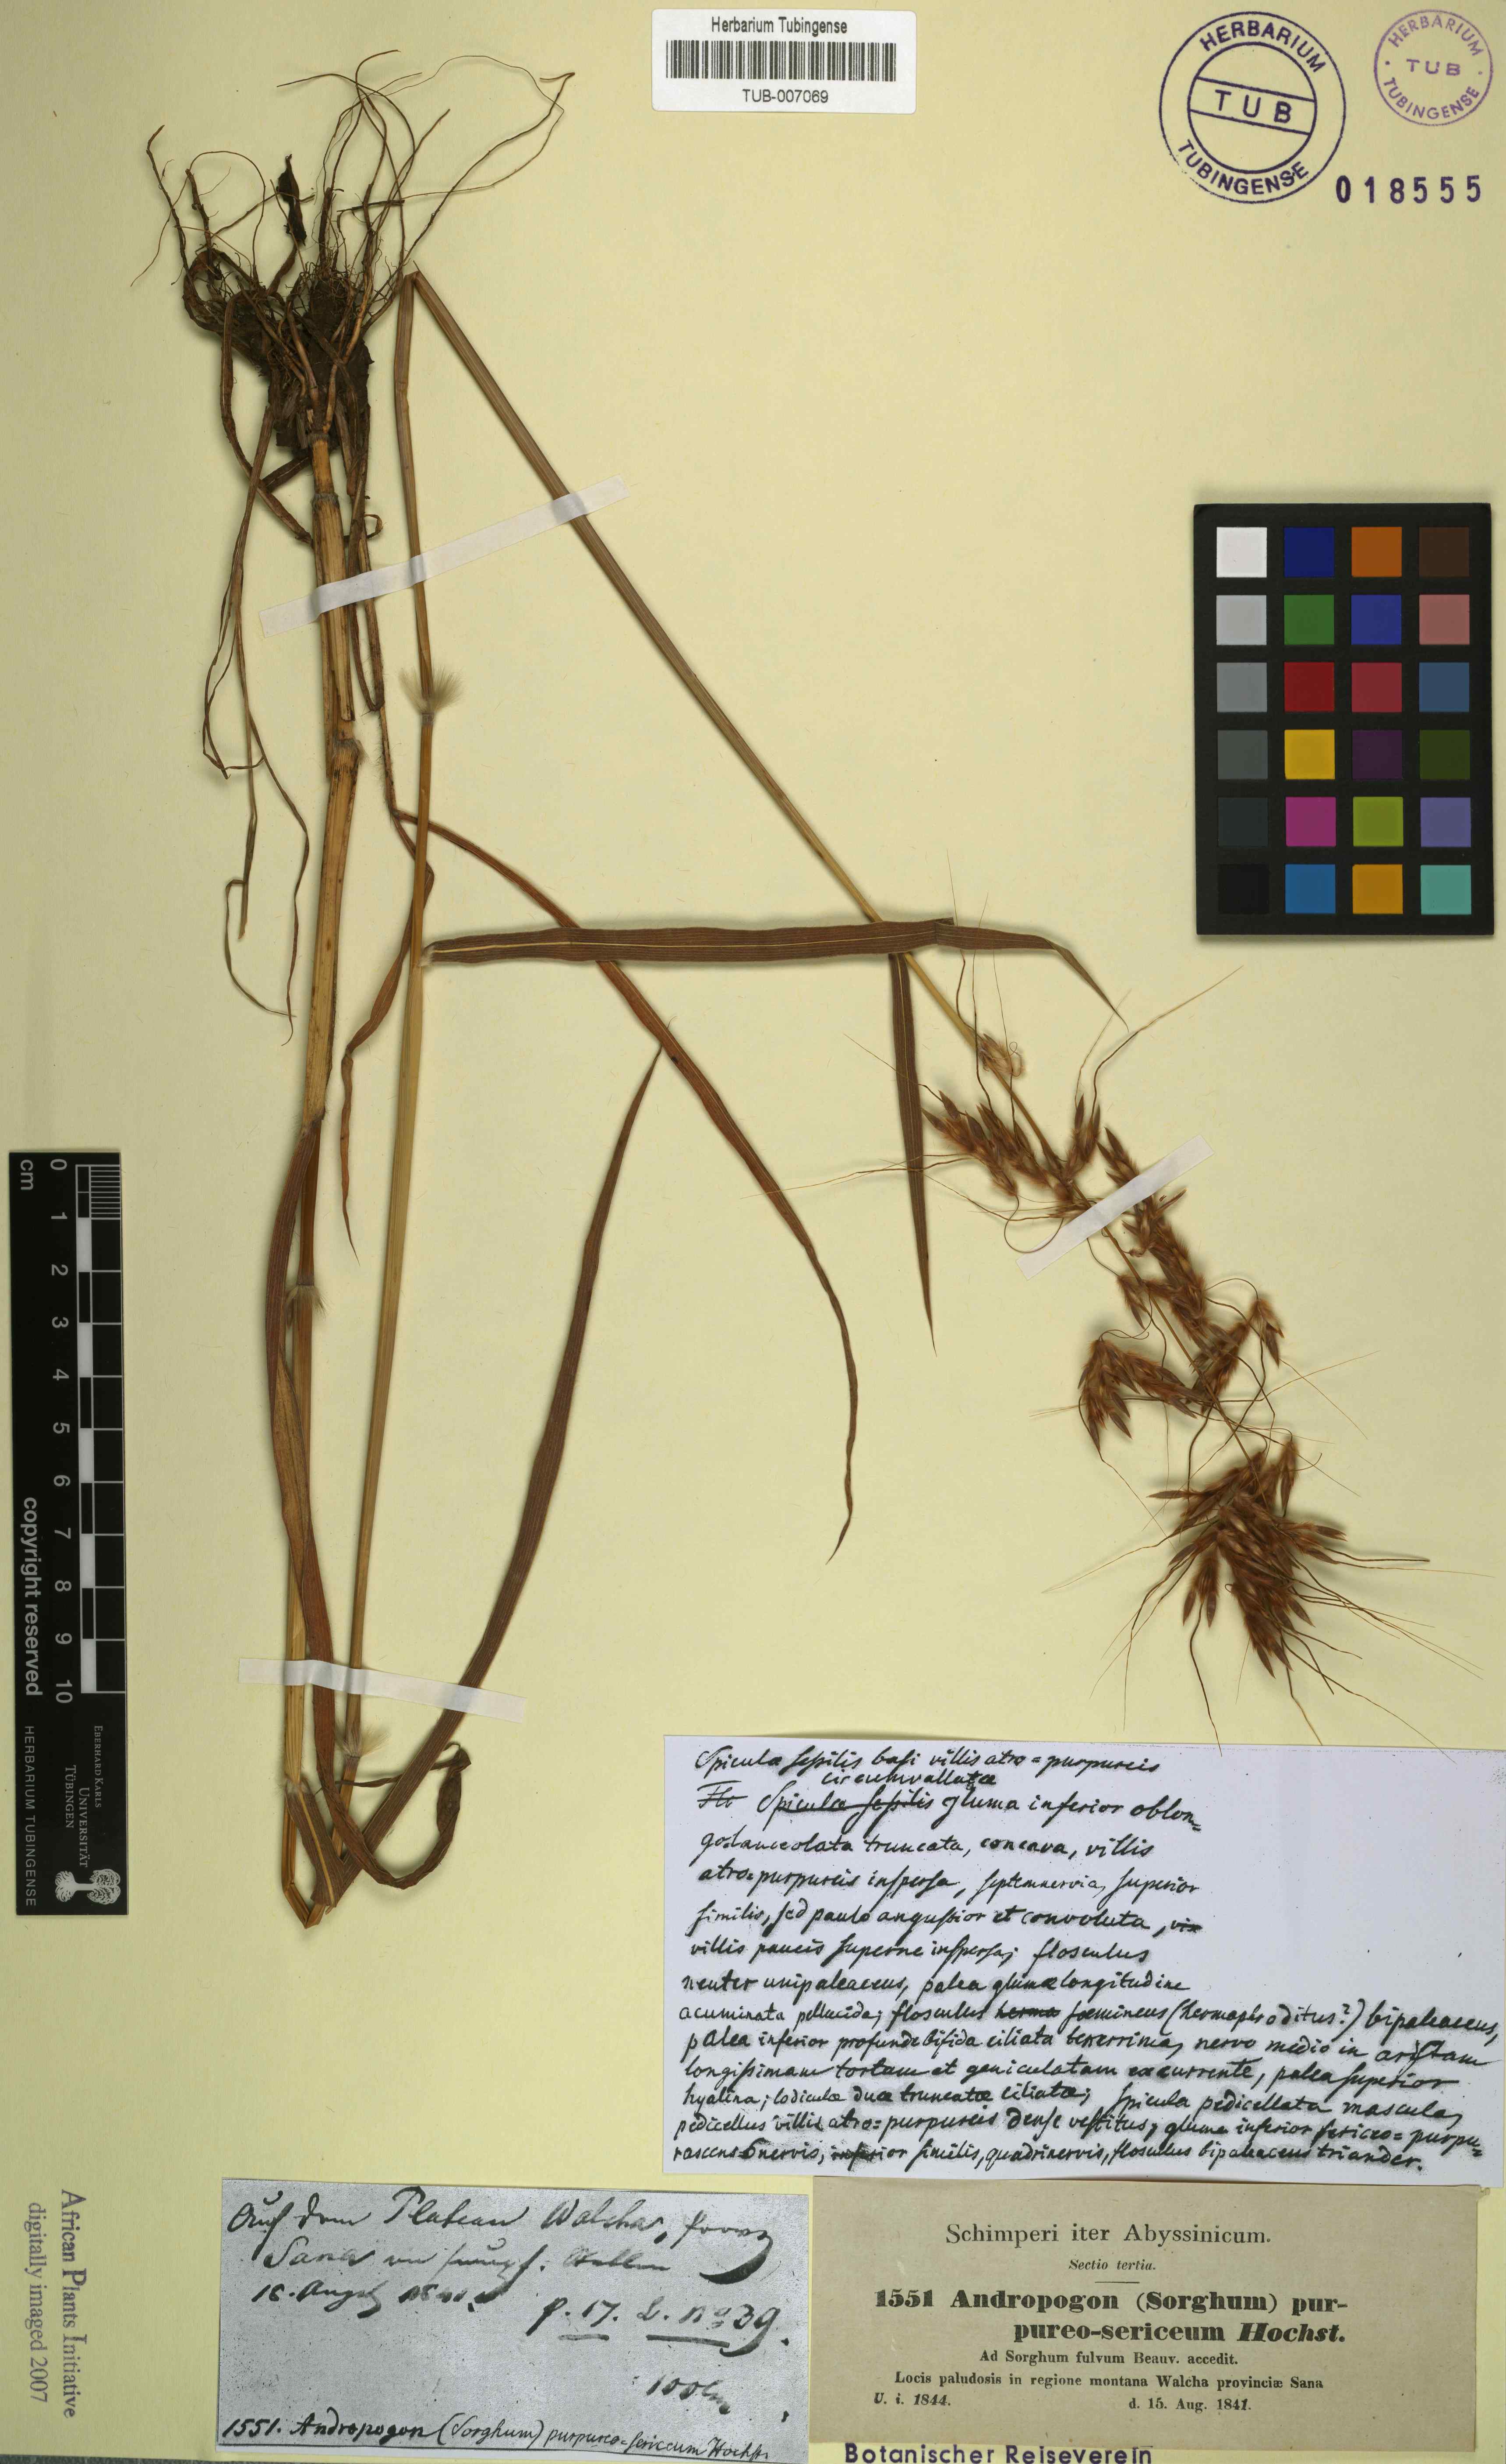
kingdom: Plantae
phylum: Tracheophyta
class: Liliopsida
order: Poales
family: Poaceae
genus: Sarga
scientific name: Sarga purpureosericea
